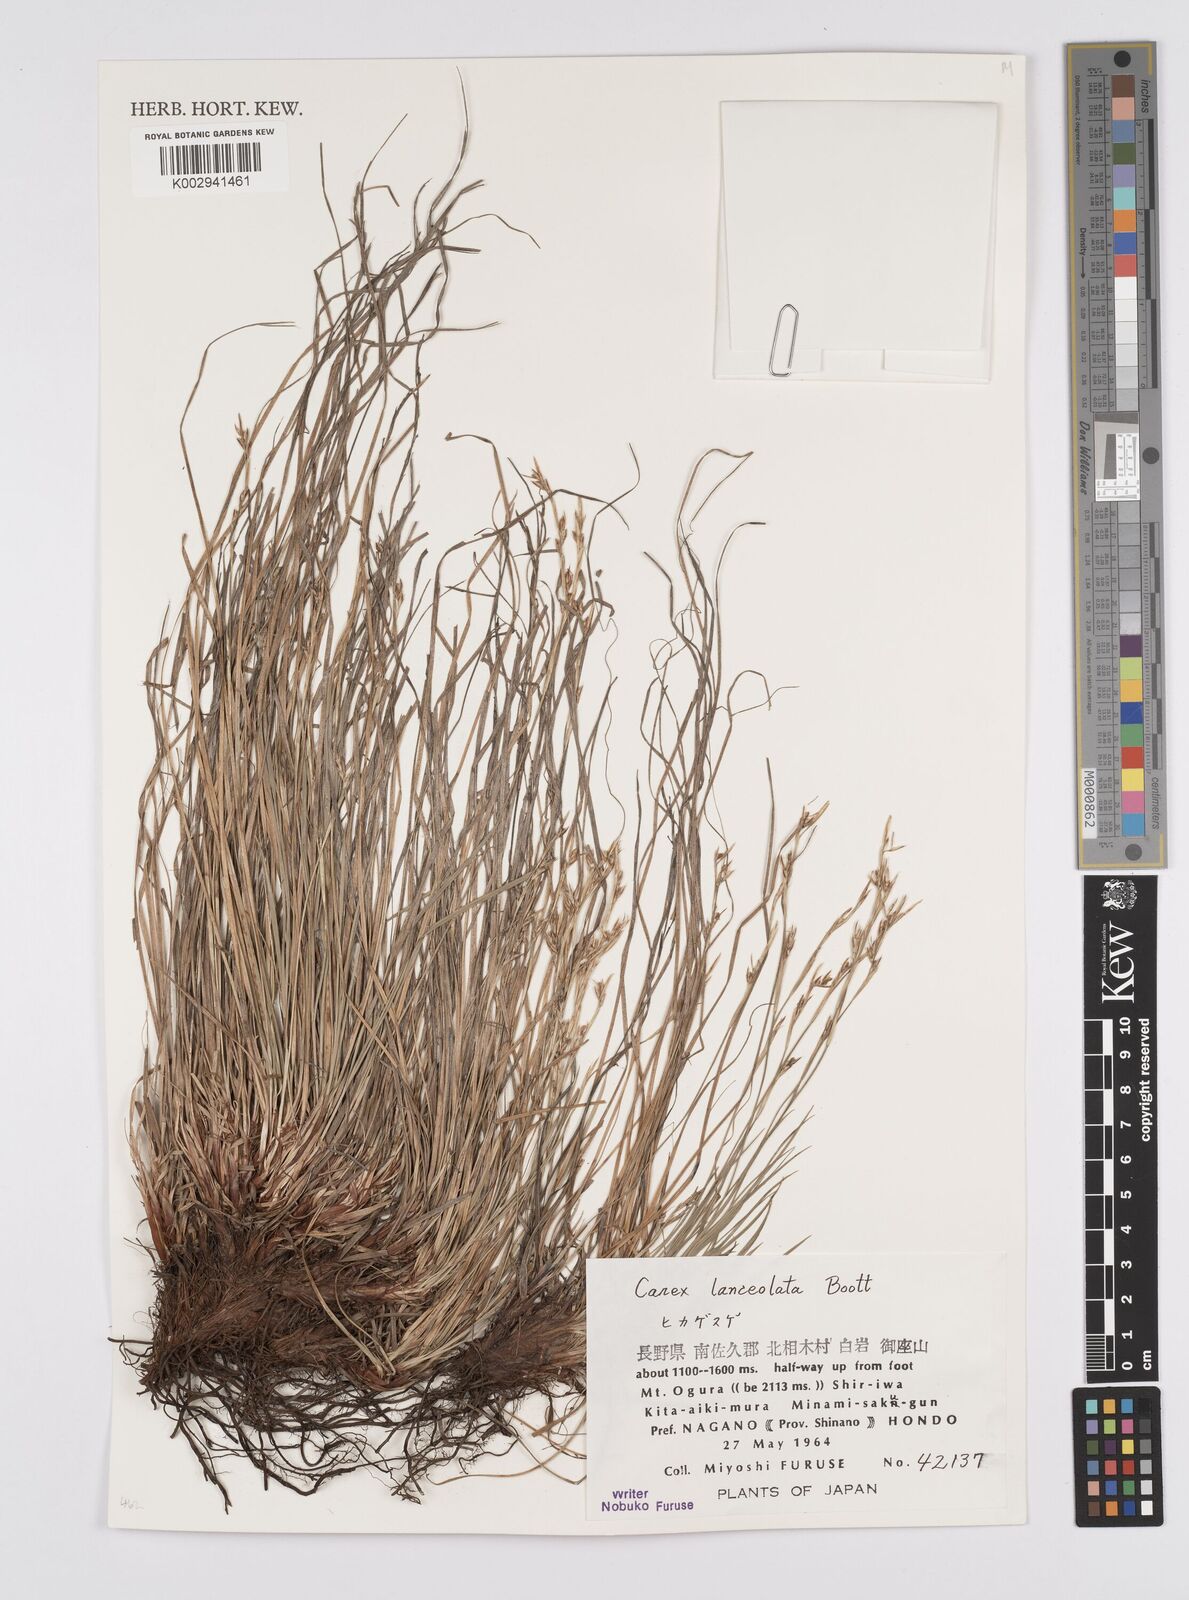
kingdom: Plantae
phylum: Tracheophyta
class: Liliopsida
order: Poales
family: Cyperaceae
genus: Carex
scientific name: Carex lanceolata
